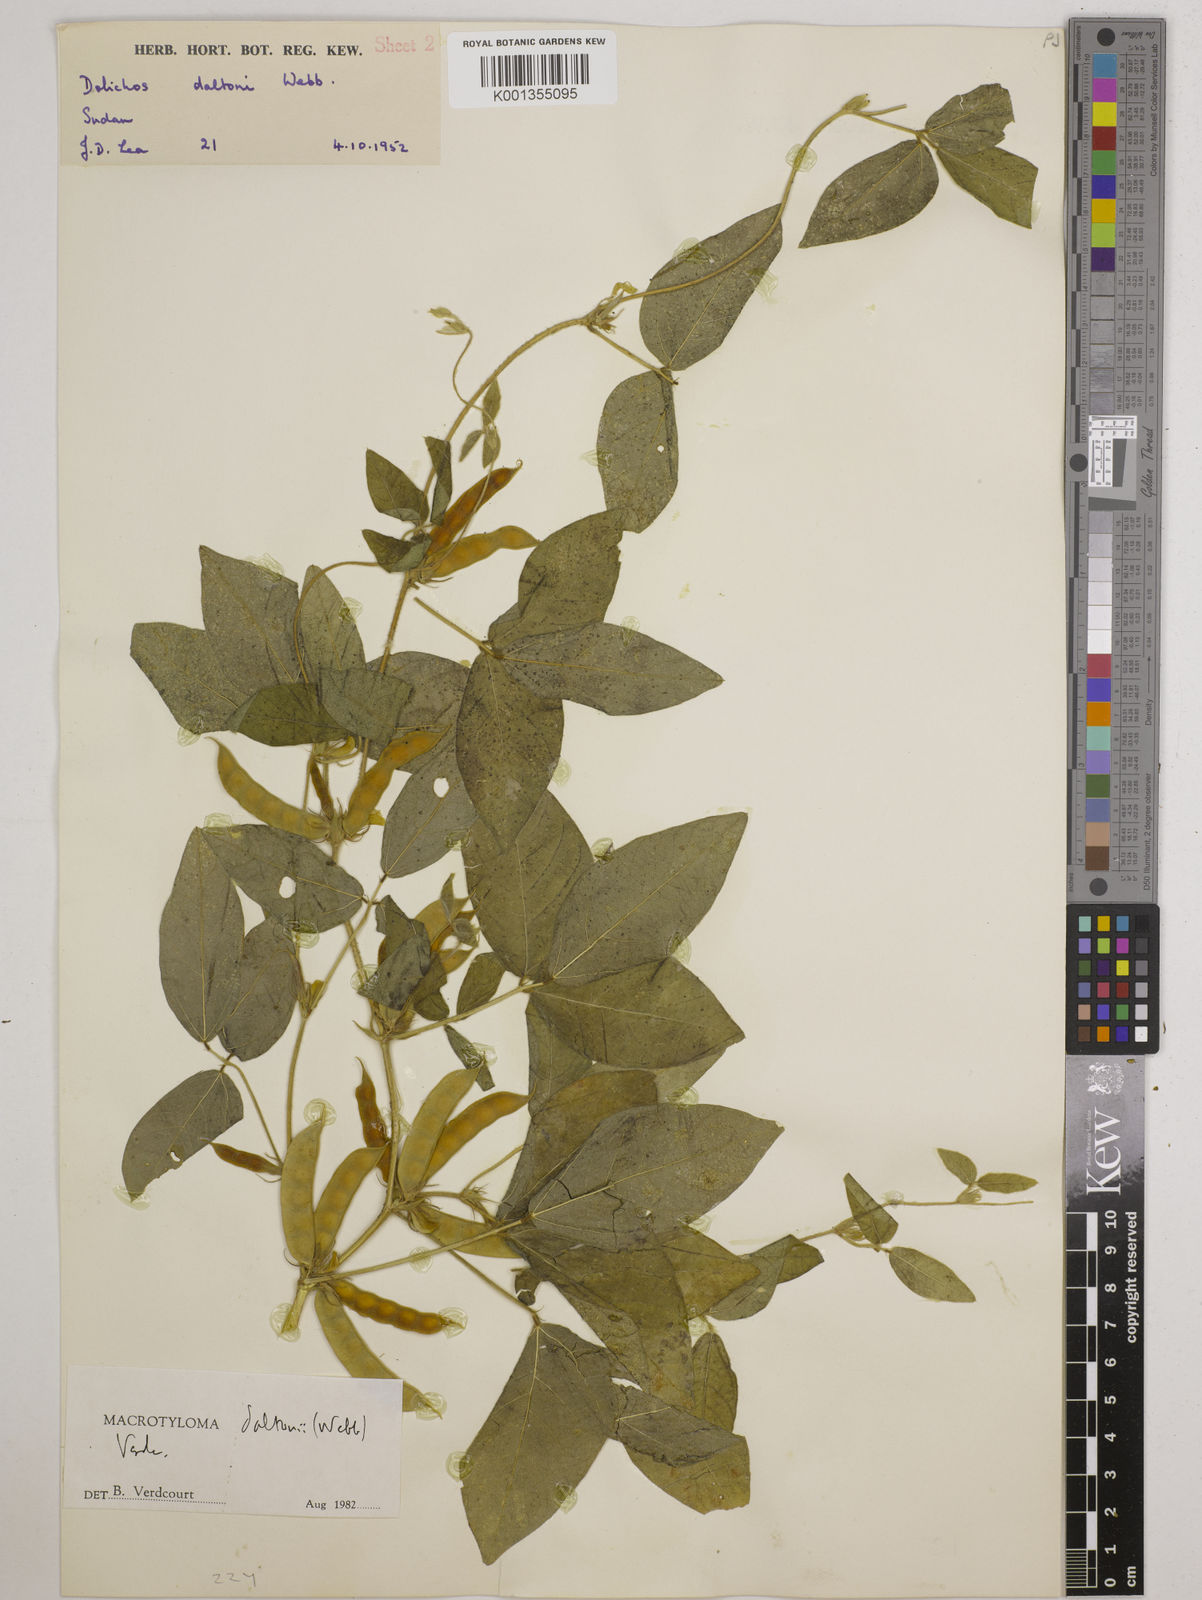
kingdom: Plantae
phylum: Tracheophyta
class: Magnoliopsida
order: Fabales
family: Fabaceae
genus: Macrotyloma
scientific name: Macrotyloma daltonii
